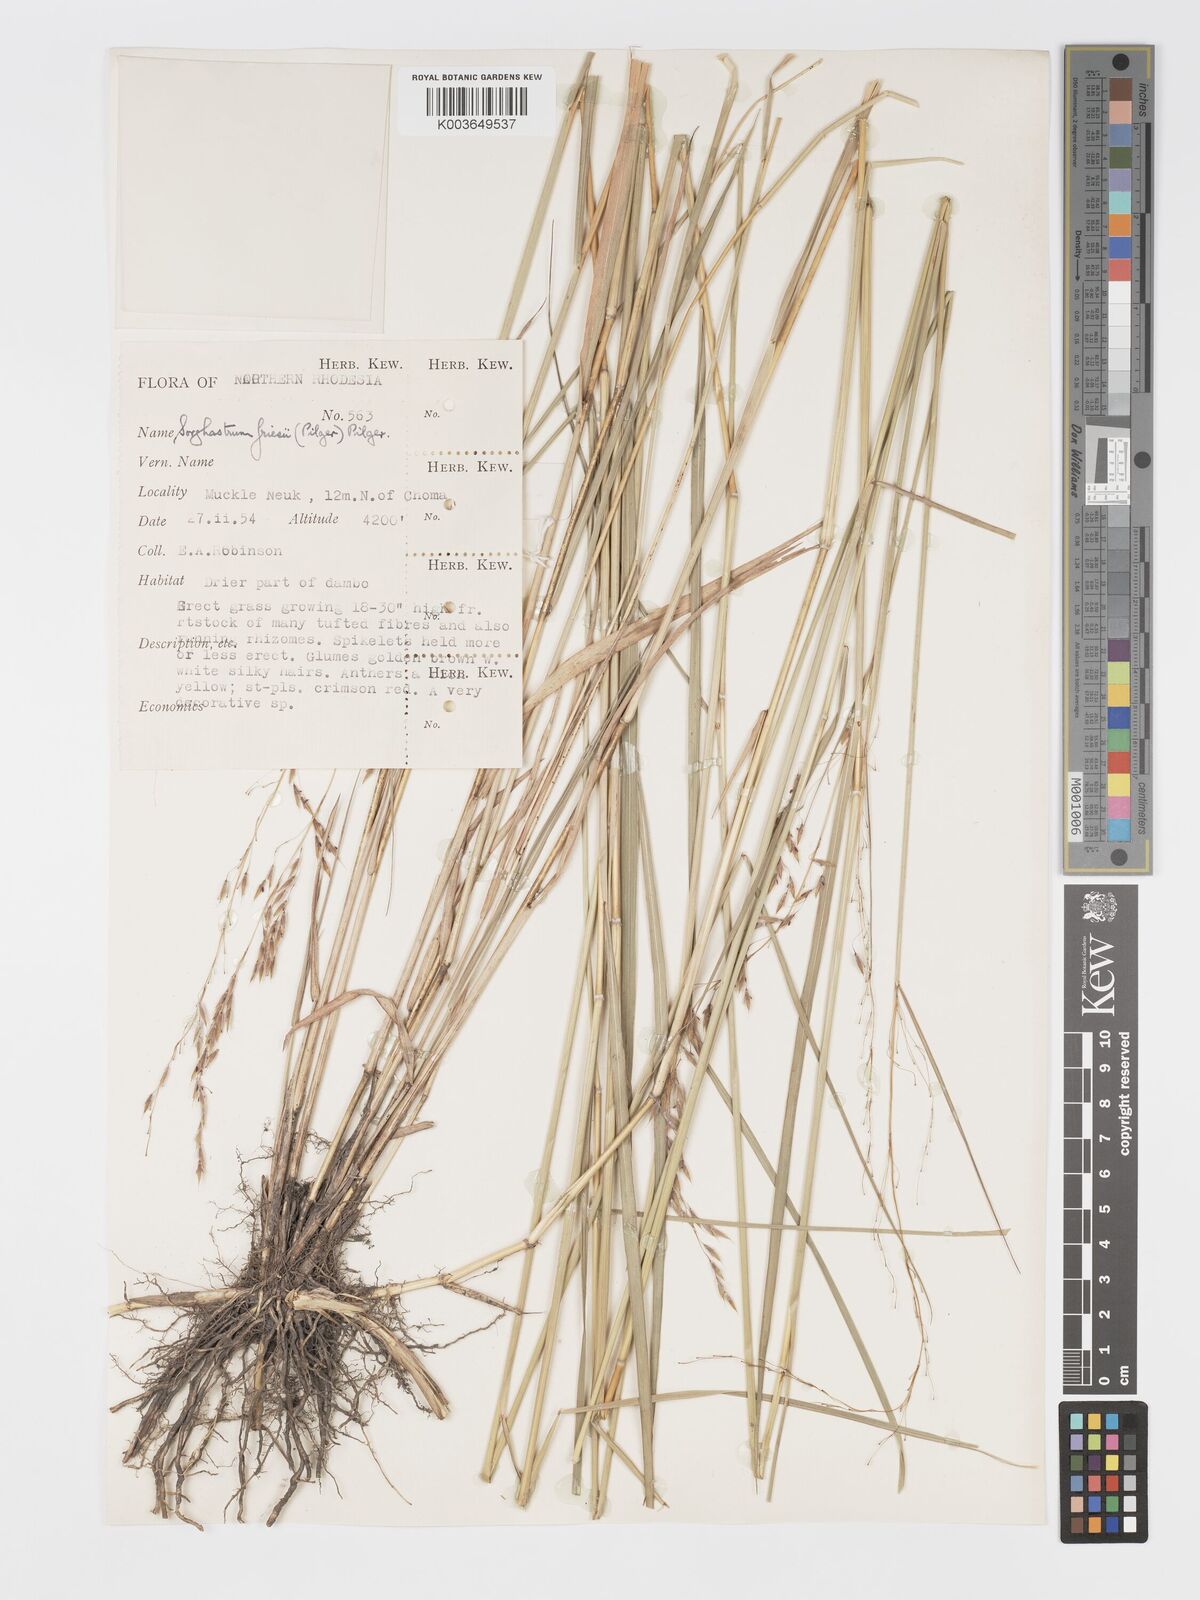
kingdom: Plantae
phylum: Tracheophyta
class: Liliopsida
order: Poales
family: Poaceae
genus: Sorghastrum
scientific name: Sorghastrum nudipes
